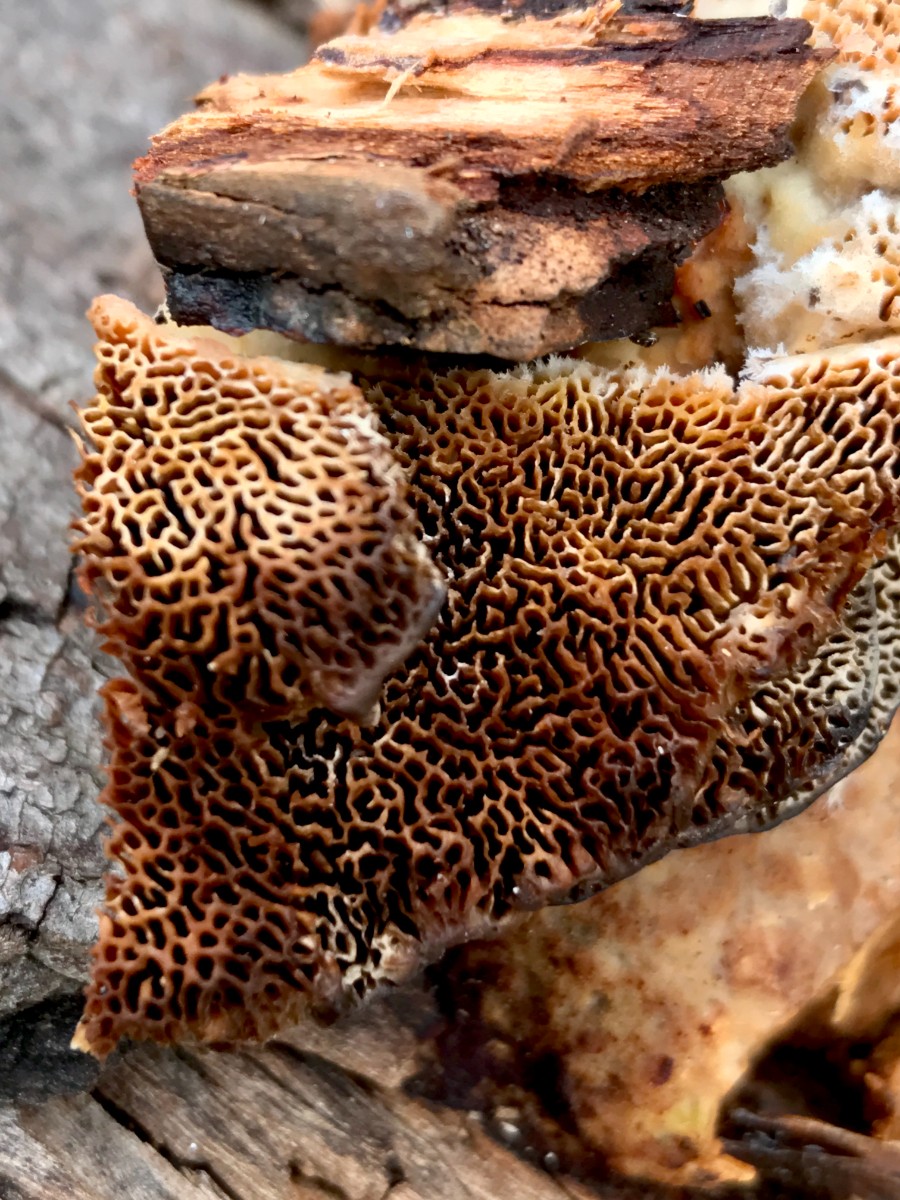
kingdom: Fungi
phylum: Basidiomycota
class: Agaricomycetes
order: Polyporales
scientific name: Polyporales
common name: poresvampordenen
